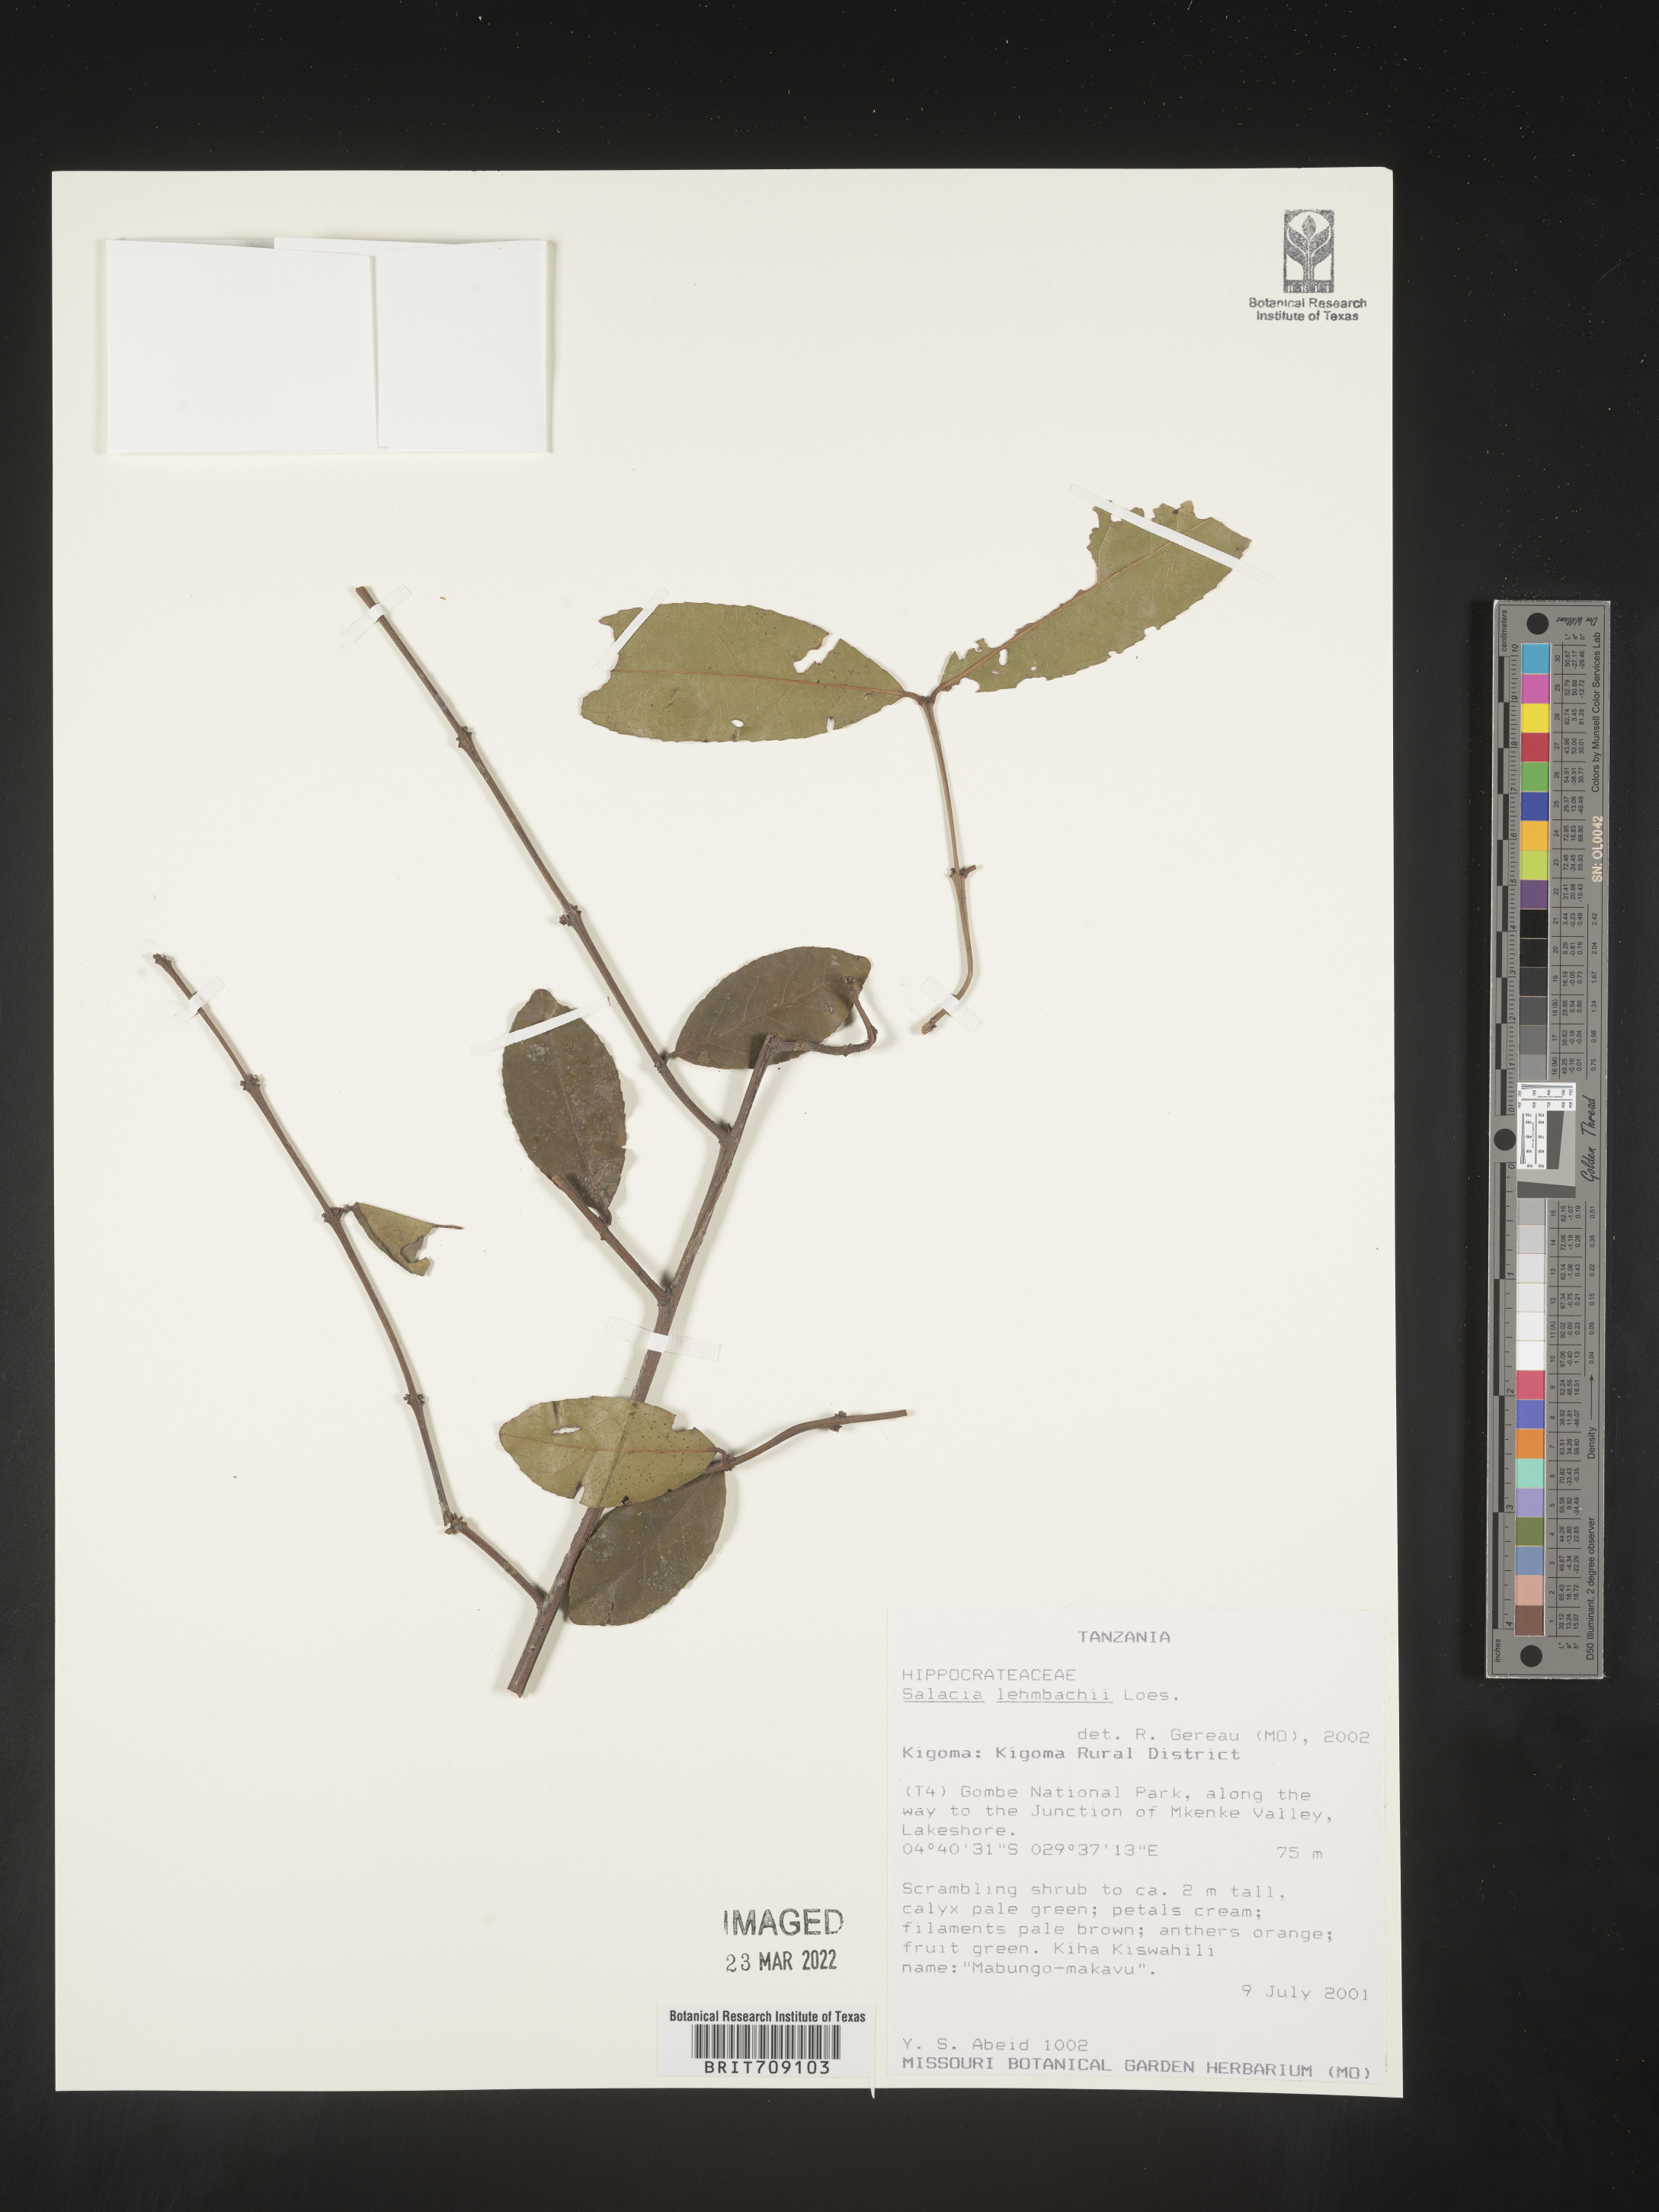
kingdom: Plantae
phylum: Tracheophyta
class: Magnoliopsida
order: Celastrales
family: Celastraceae
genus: Salacia
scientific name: Salacia
